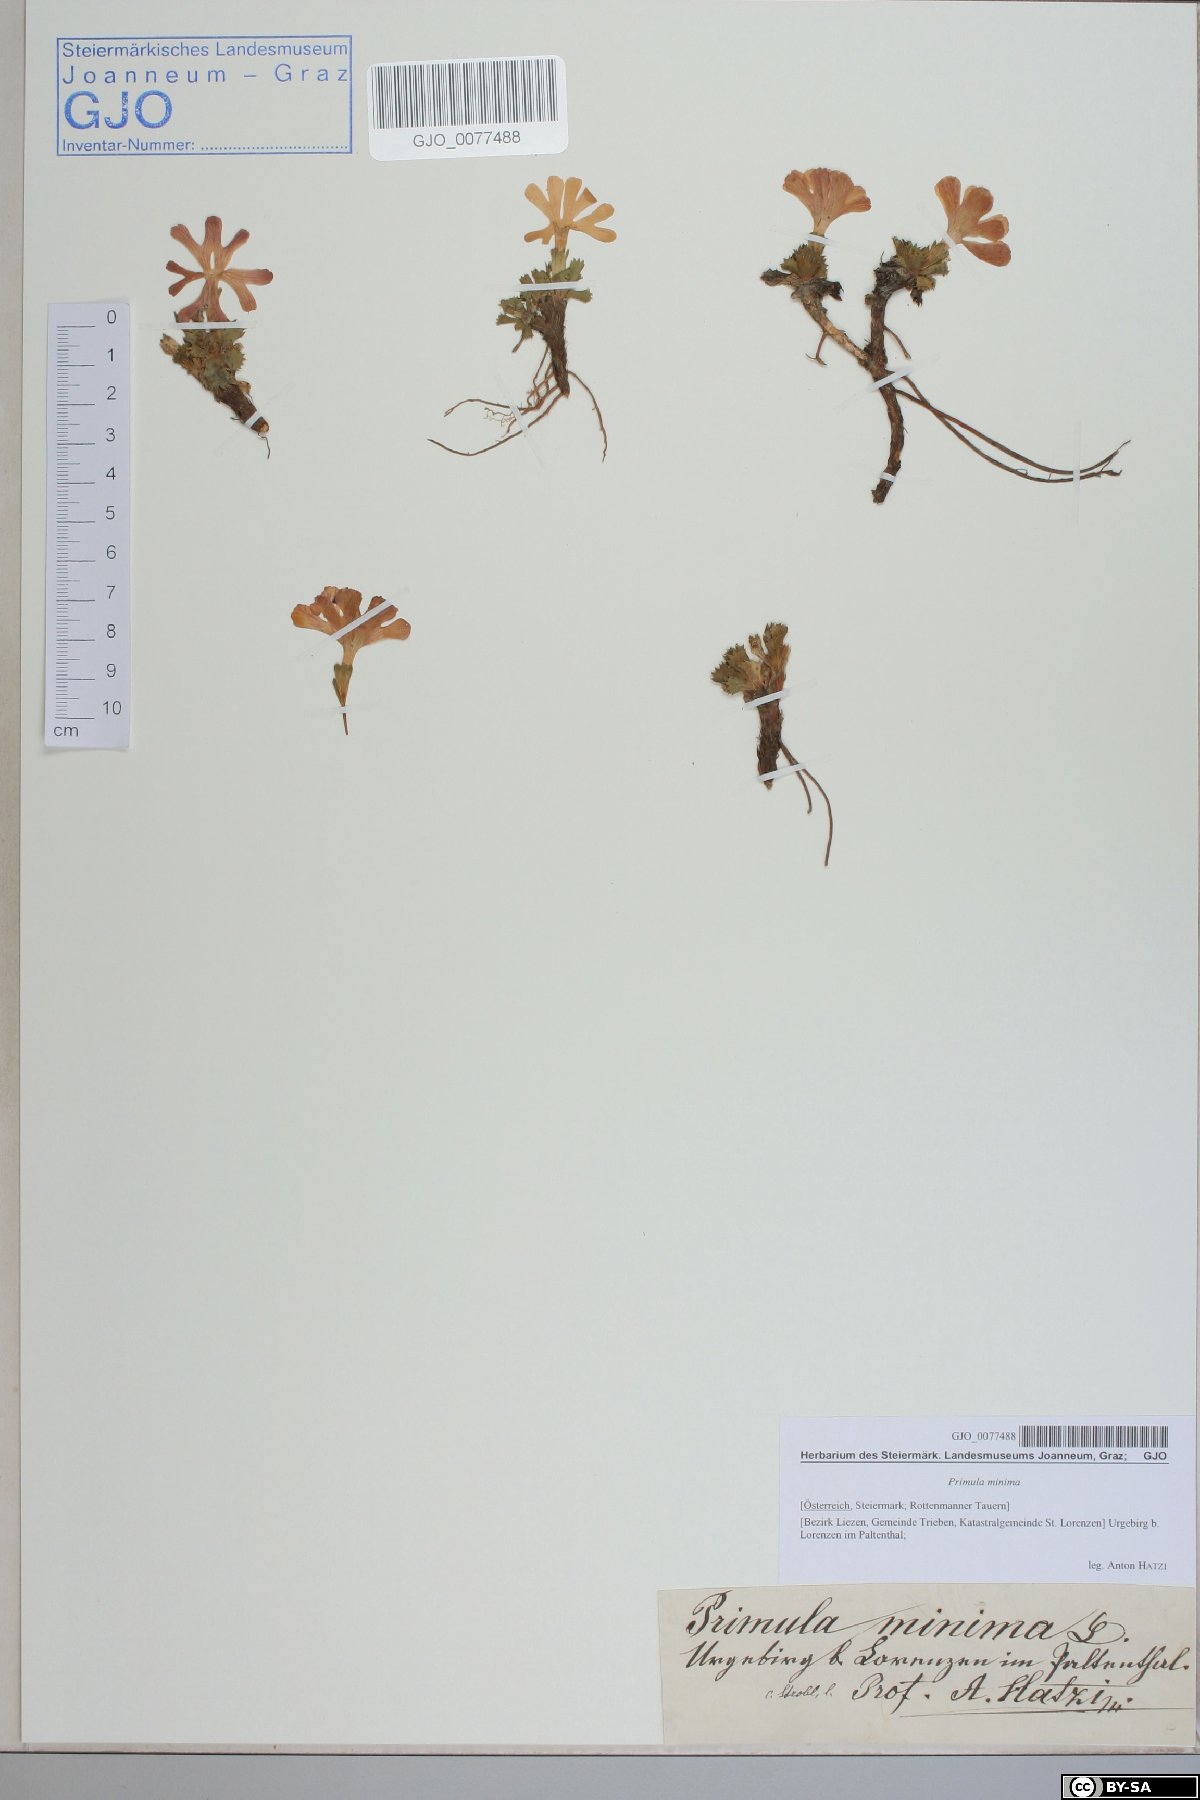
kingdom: Plantae
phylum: Tracheophyta
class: Magnoliopsida
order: Ericales
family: Primulaceae
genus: Primula
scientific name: Primula minima
